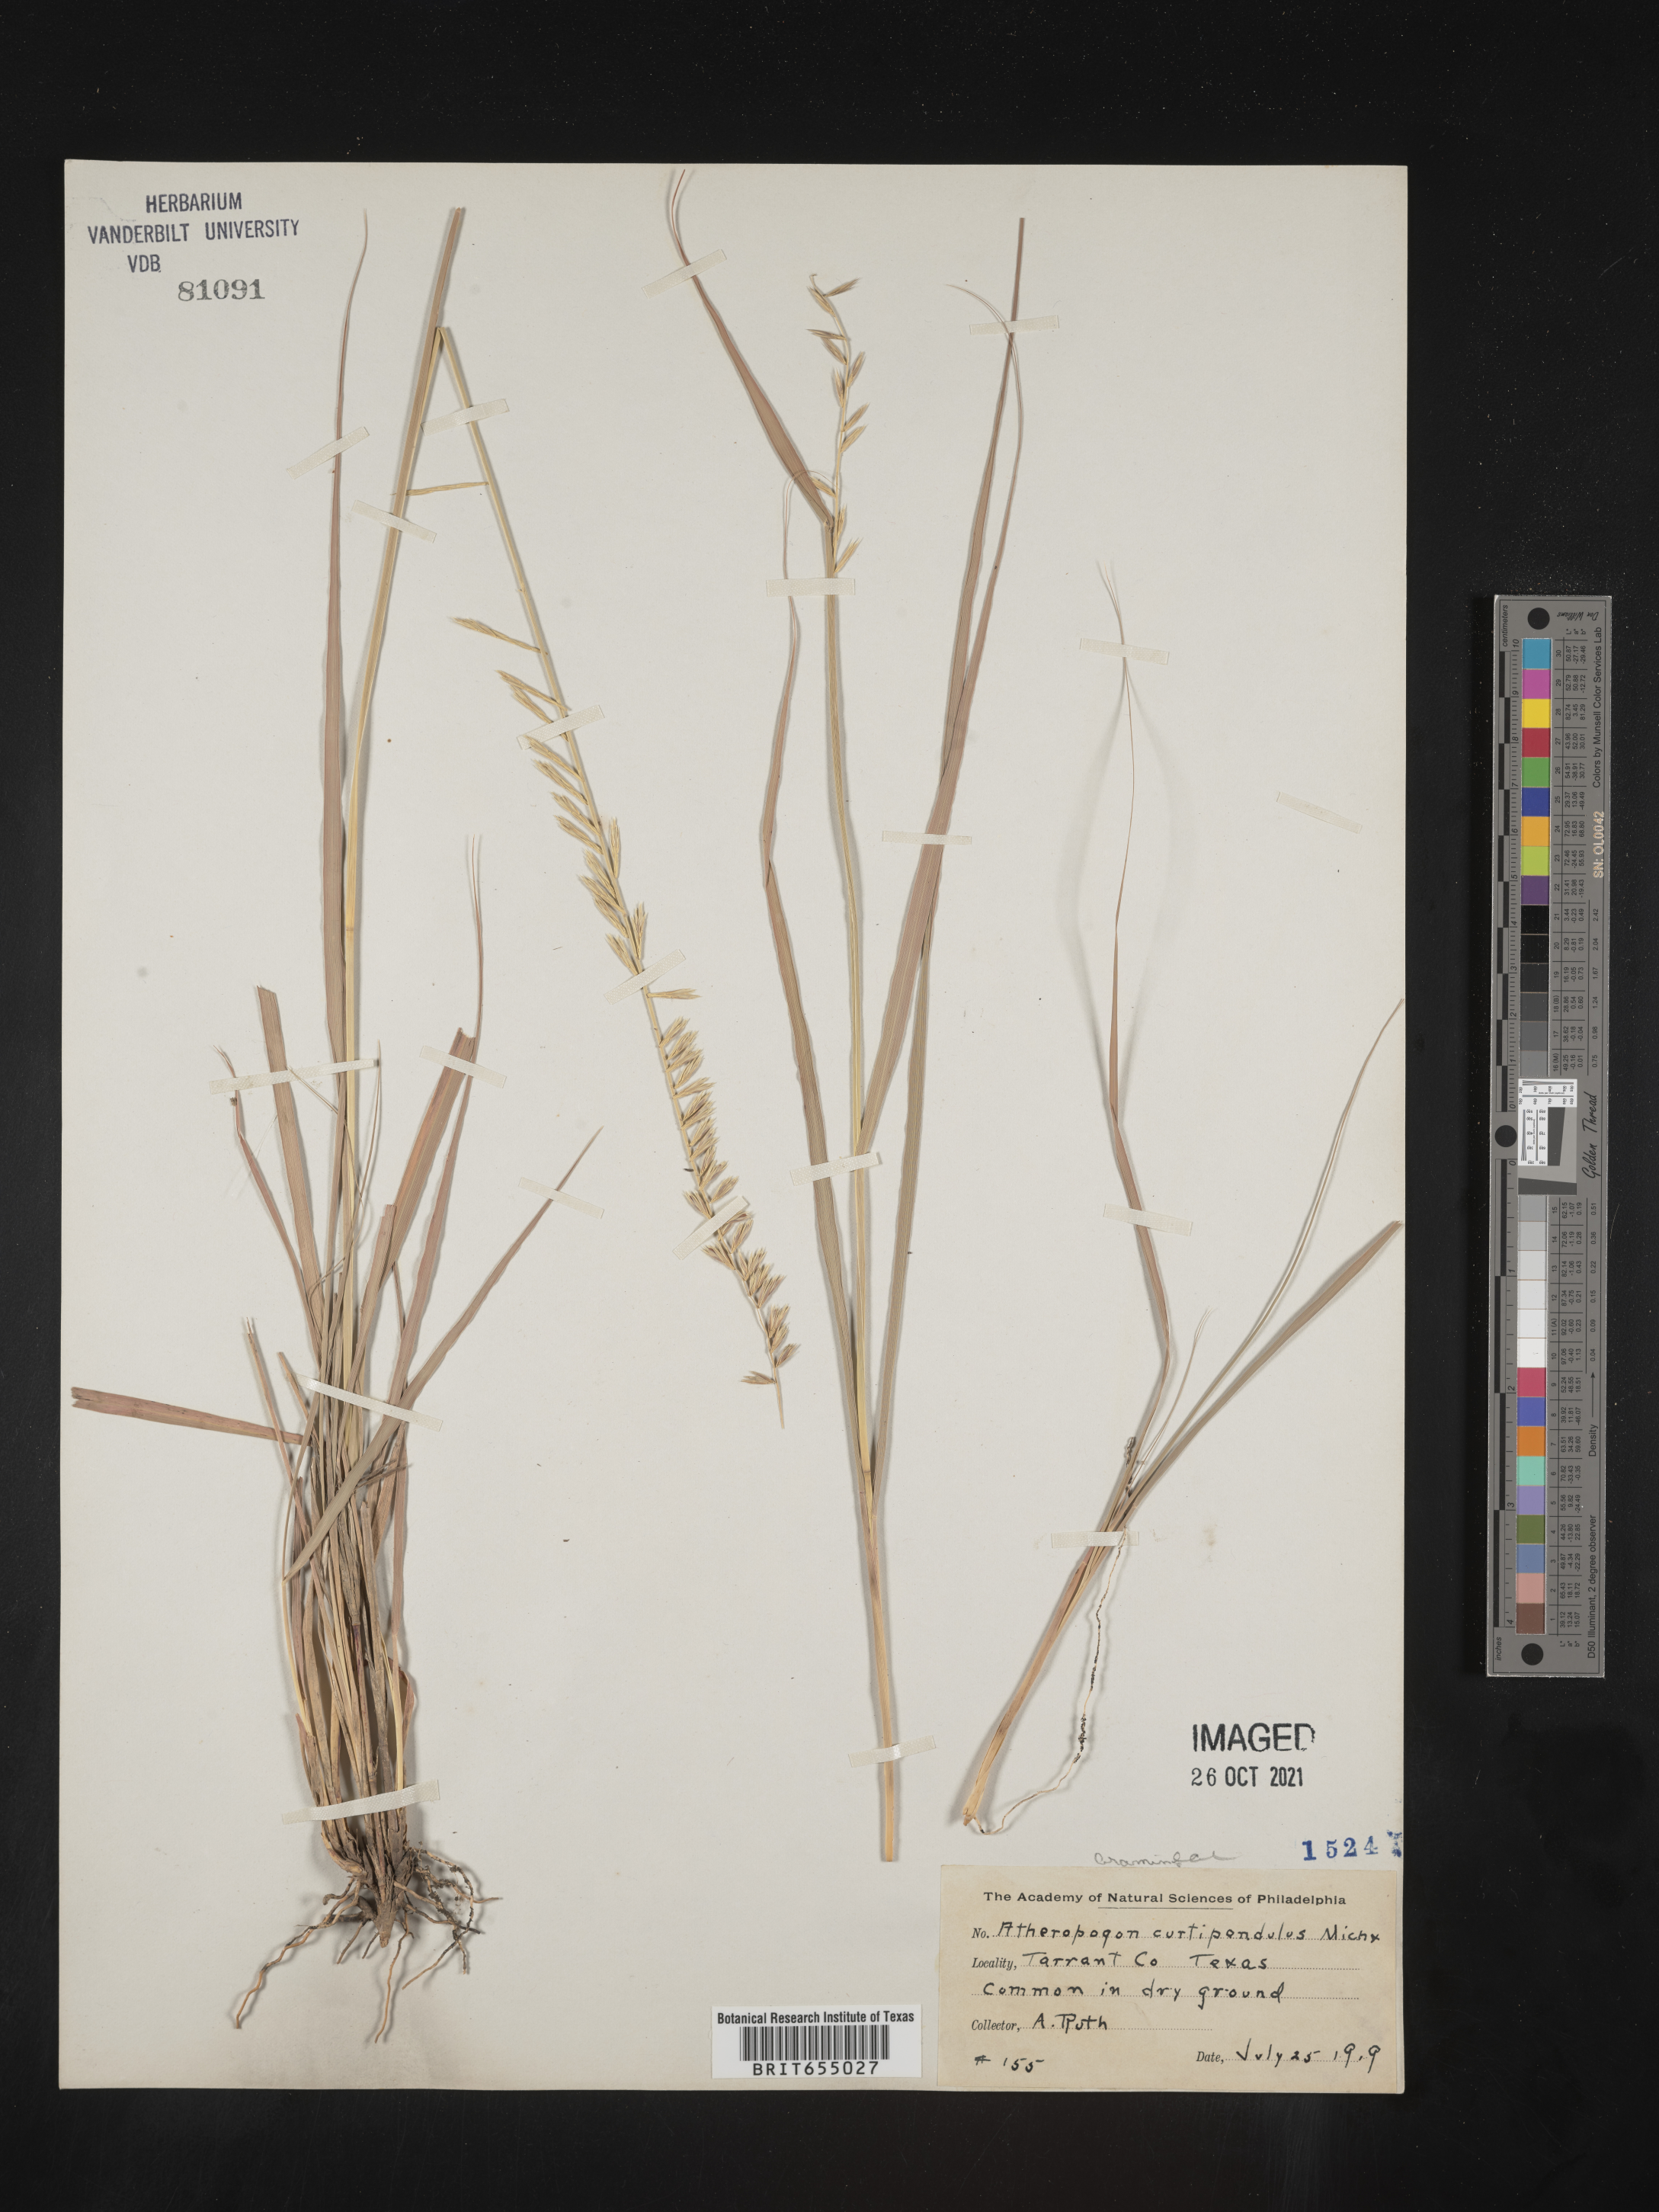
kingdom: Plantae
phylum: Tracheophyta
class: Liliopsida
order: Poales
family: Poaceae
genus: Bouteloua
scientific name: Bouteloua curtipendula
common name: Side-oats grama
